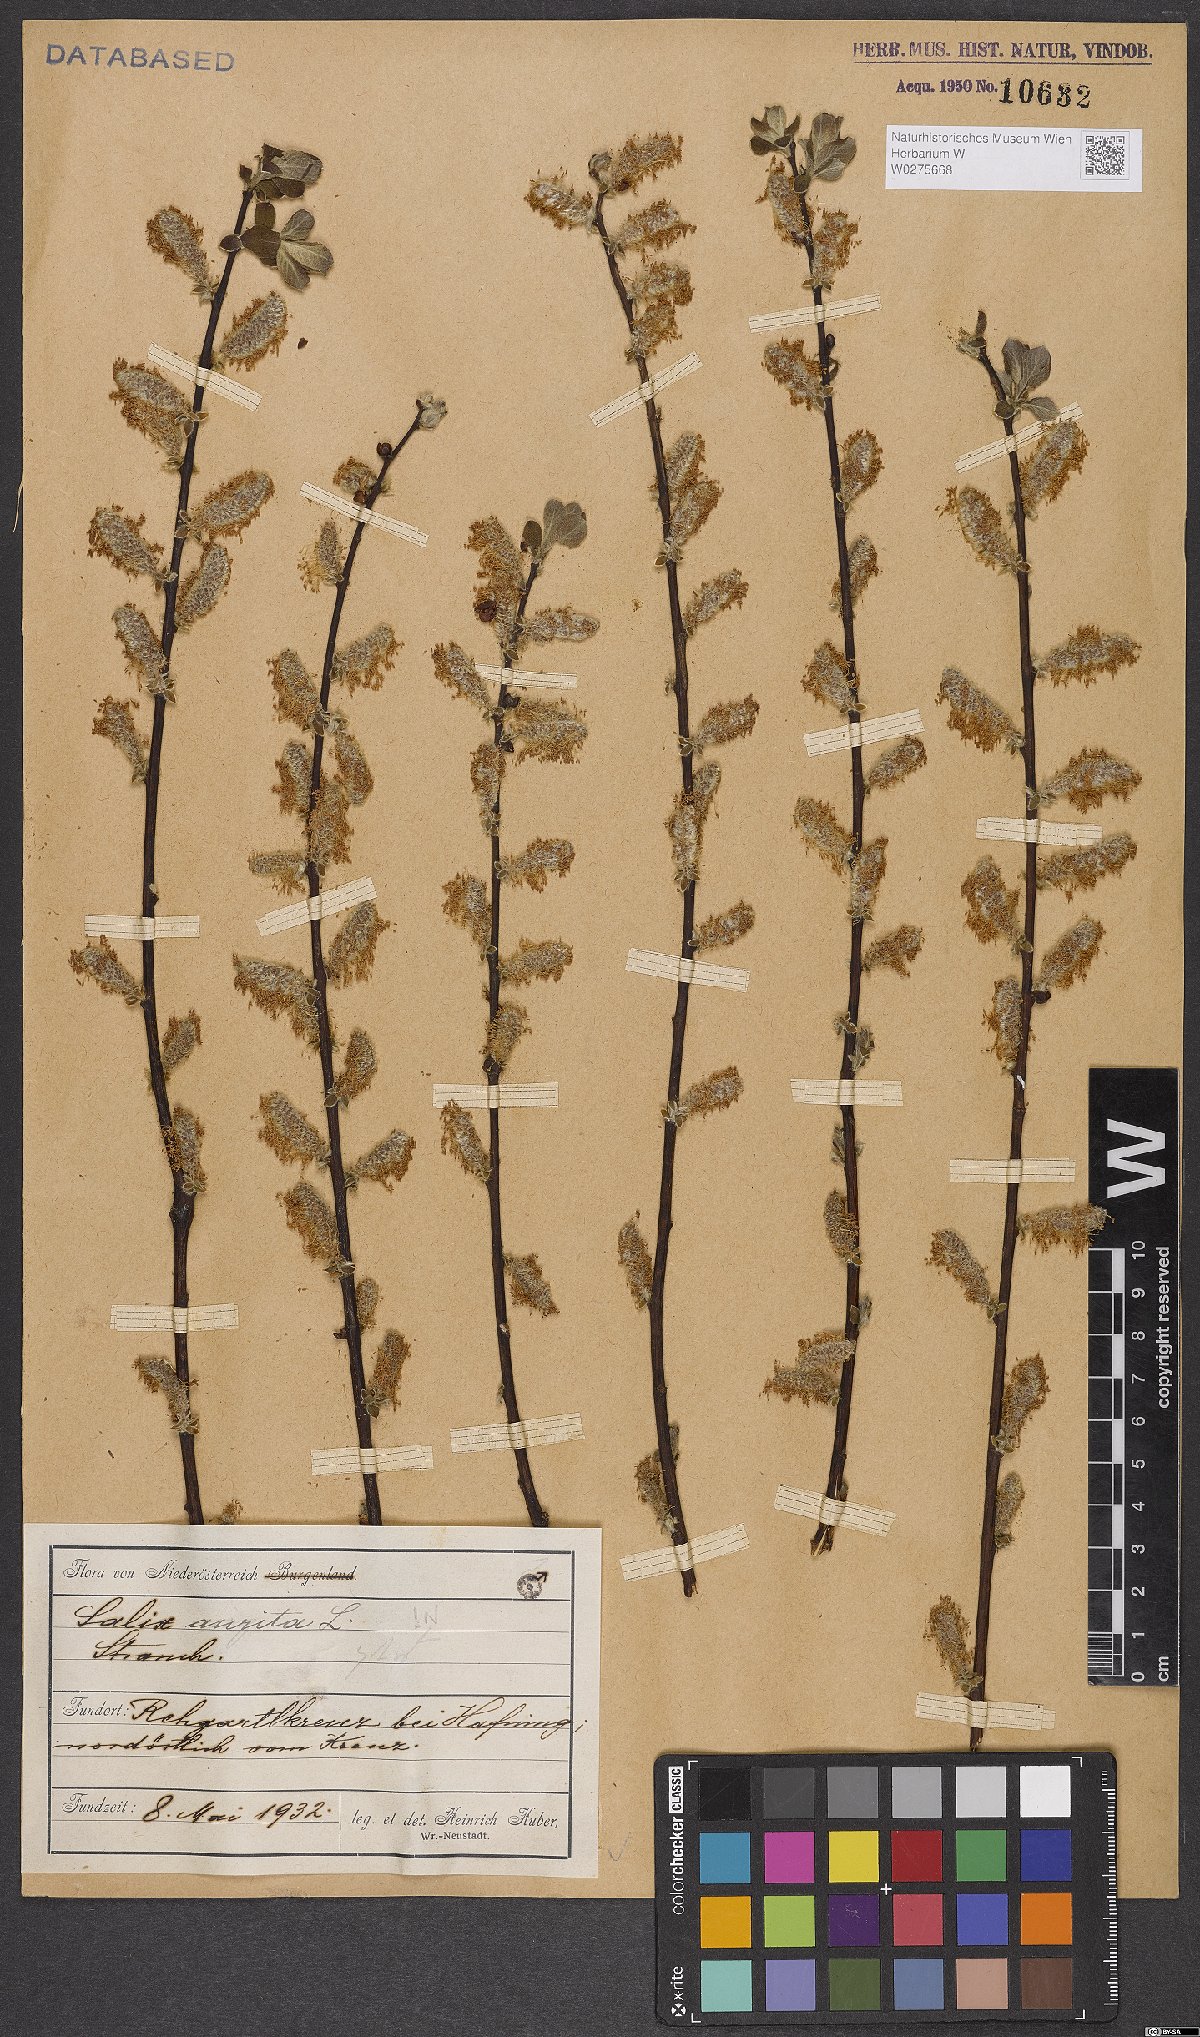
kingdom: Plantae
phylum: Tracheophyta
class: Magnoliopsida
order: Malpighiales
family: Salicaceae
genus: Salix
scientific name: Salix aurita
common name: Eared willow
